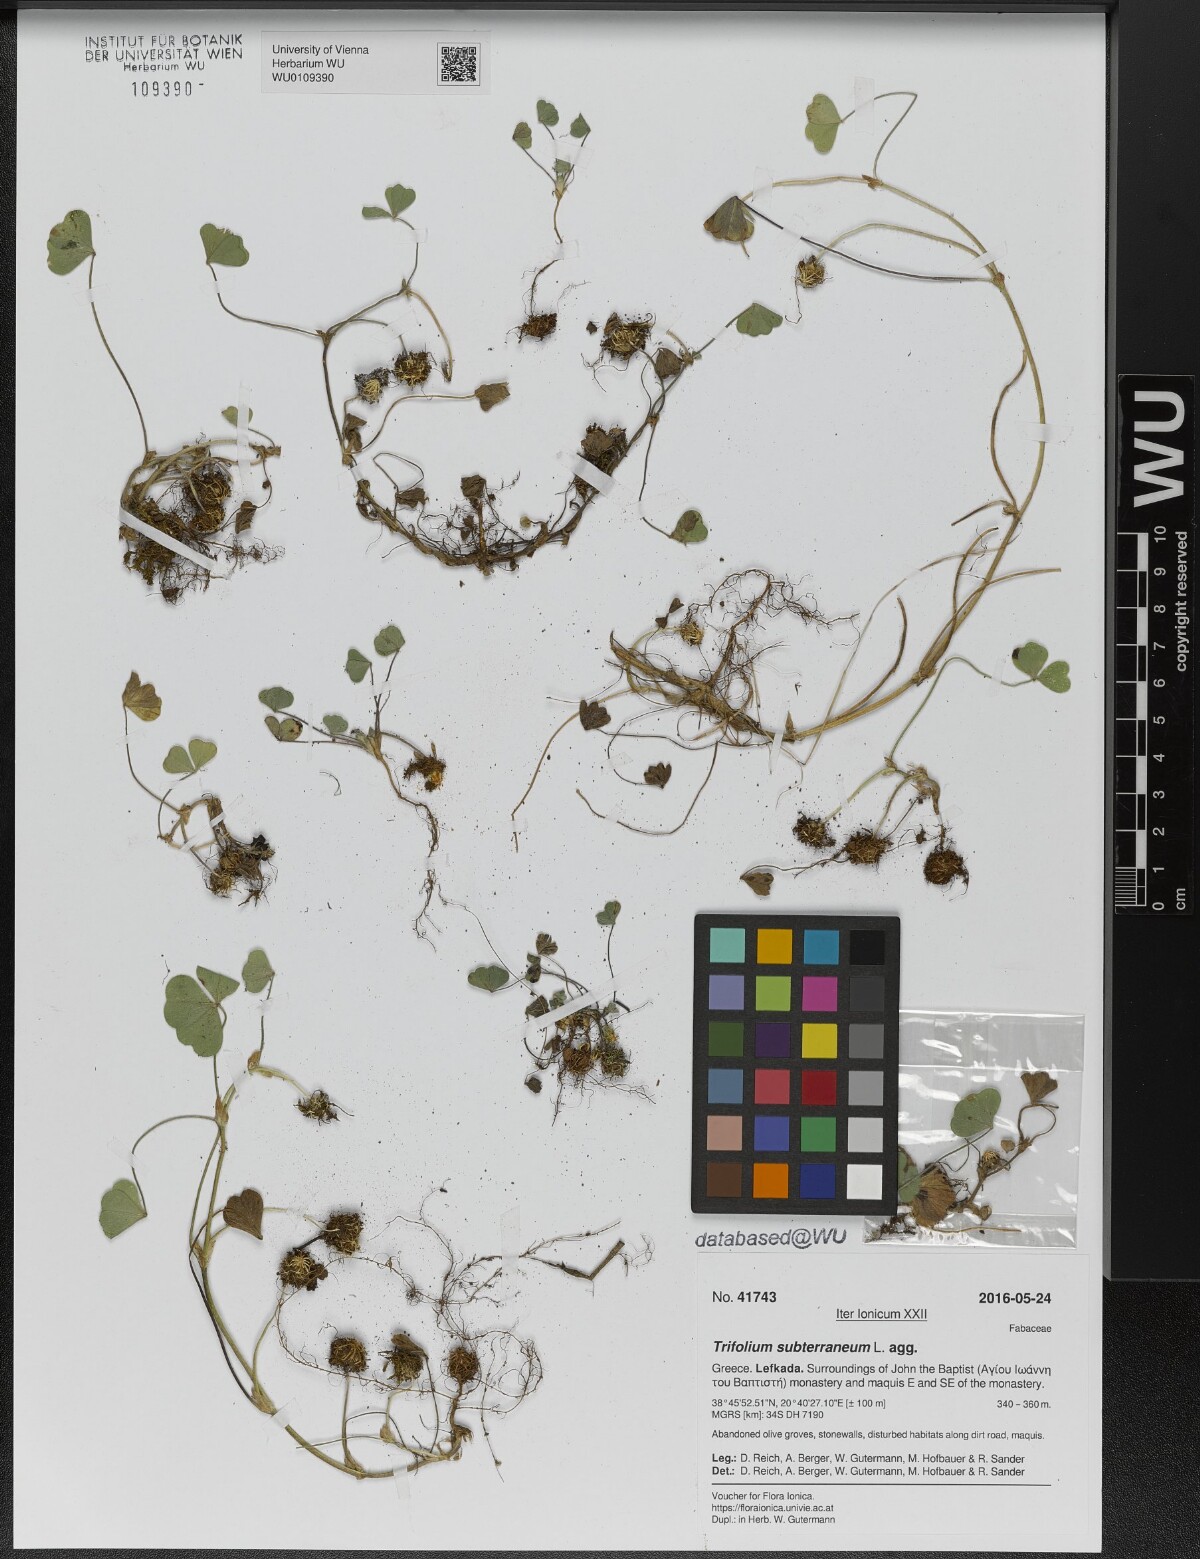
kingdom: Plantae
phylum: Tracheophyta
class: Magnoliopsida
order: Fabales
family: Fabaceae
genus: Trifolium
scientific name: Trifolium subterraneum
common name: Subterranean clover
